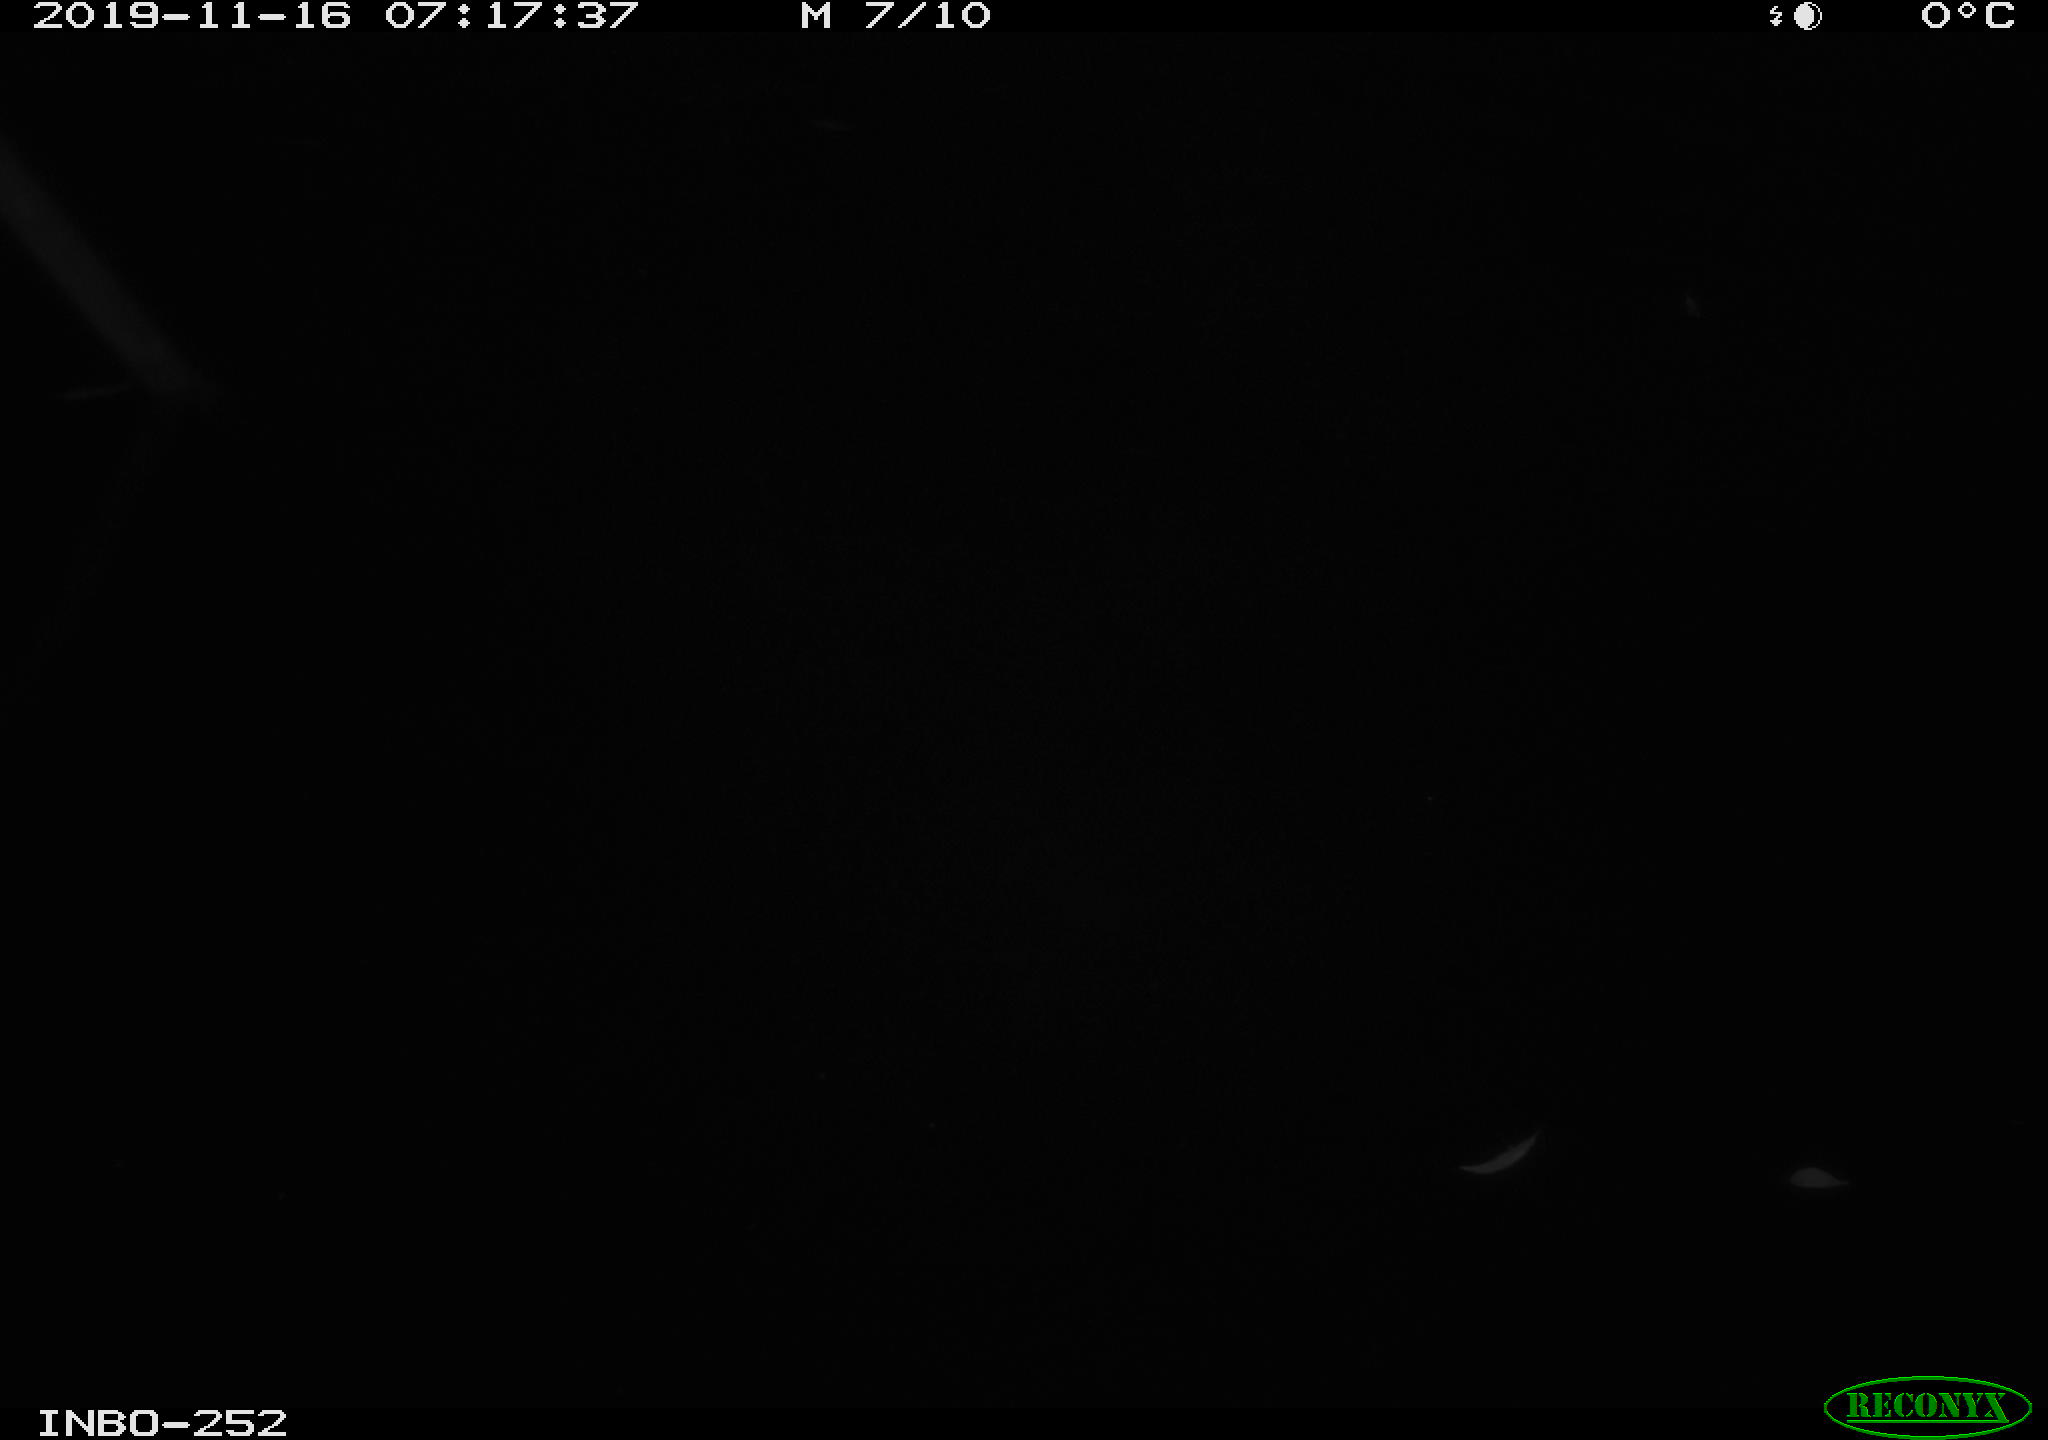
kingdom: Animalia
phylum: Chordata
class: Aves
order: Anseriformes
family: Anatidae
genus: Anas
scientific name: Anas platyrhynchos
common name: Mallard
